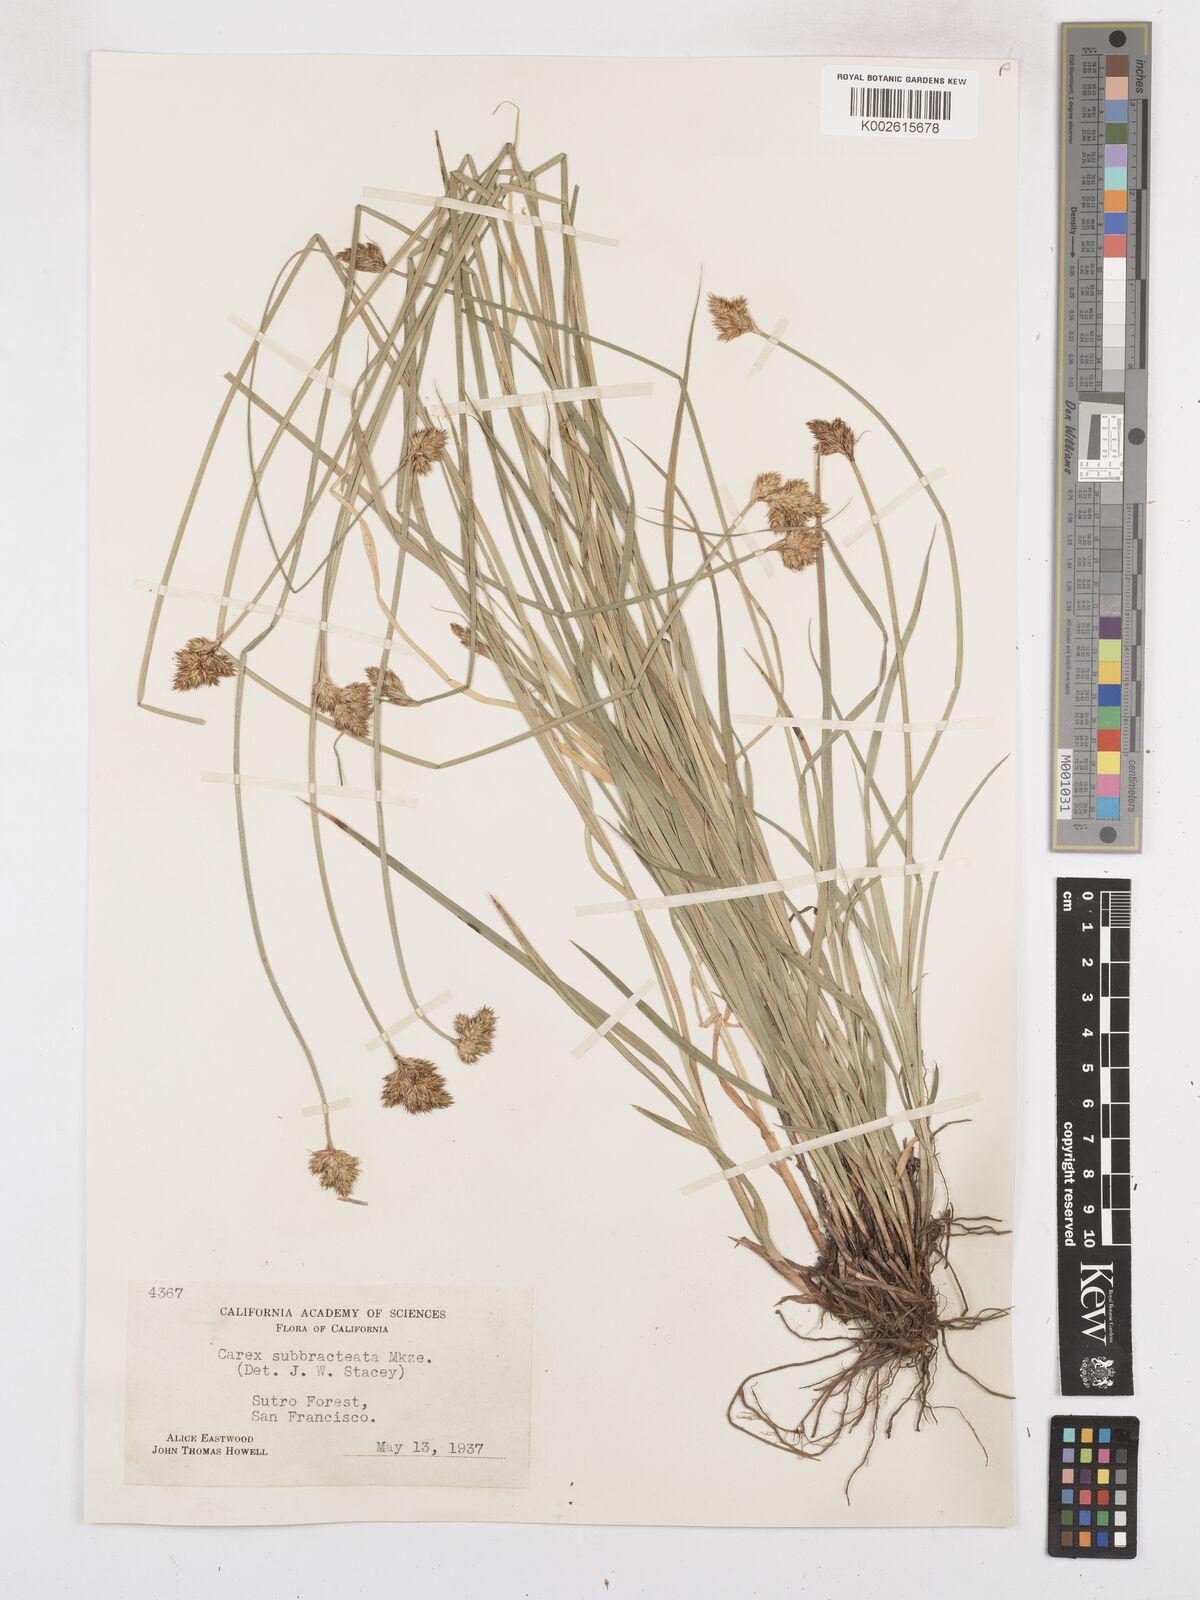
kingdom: Plantae
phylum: Tracheophyta
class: Liliopsida
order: Poales
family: Cyperaceae
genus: Carex
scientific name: Carex subbracteata
